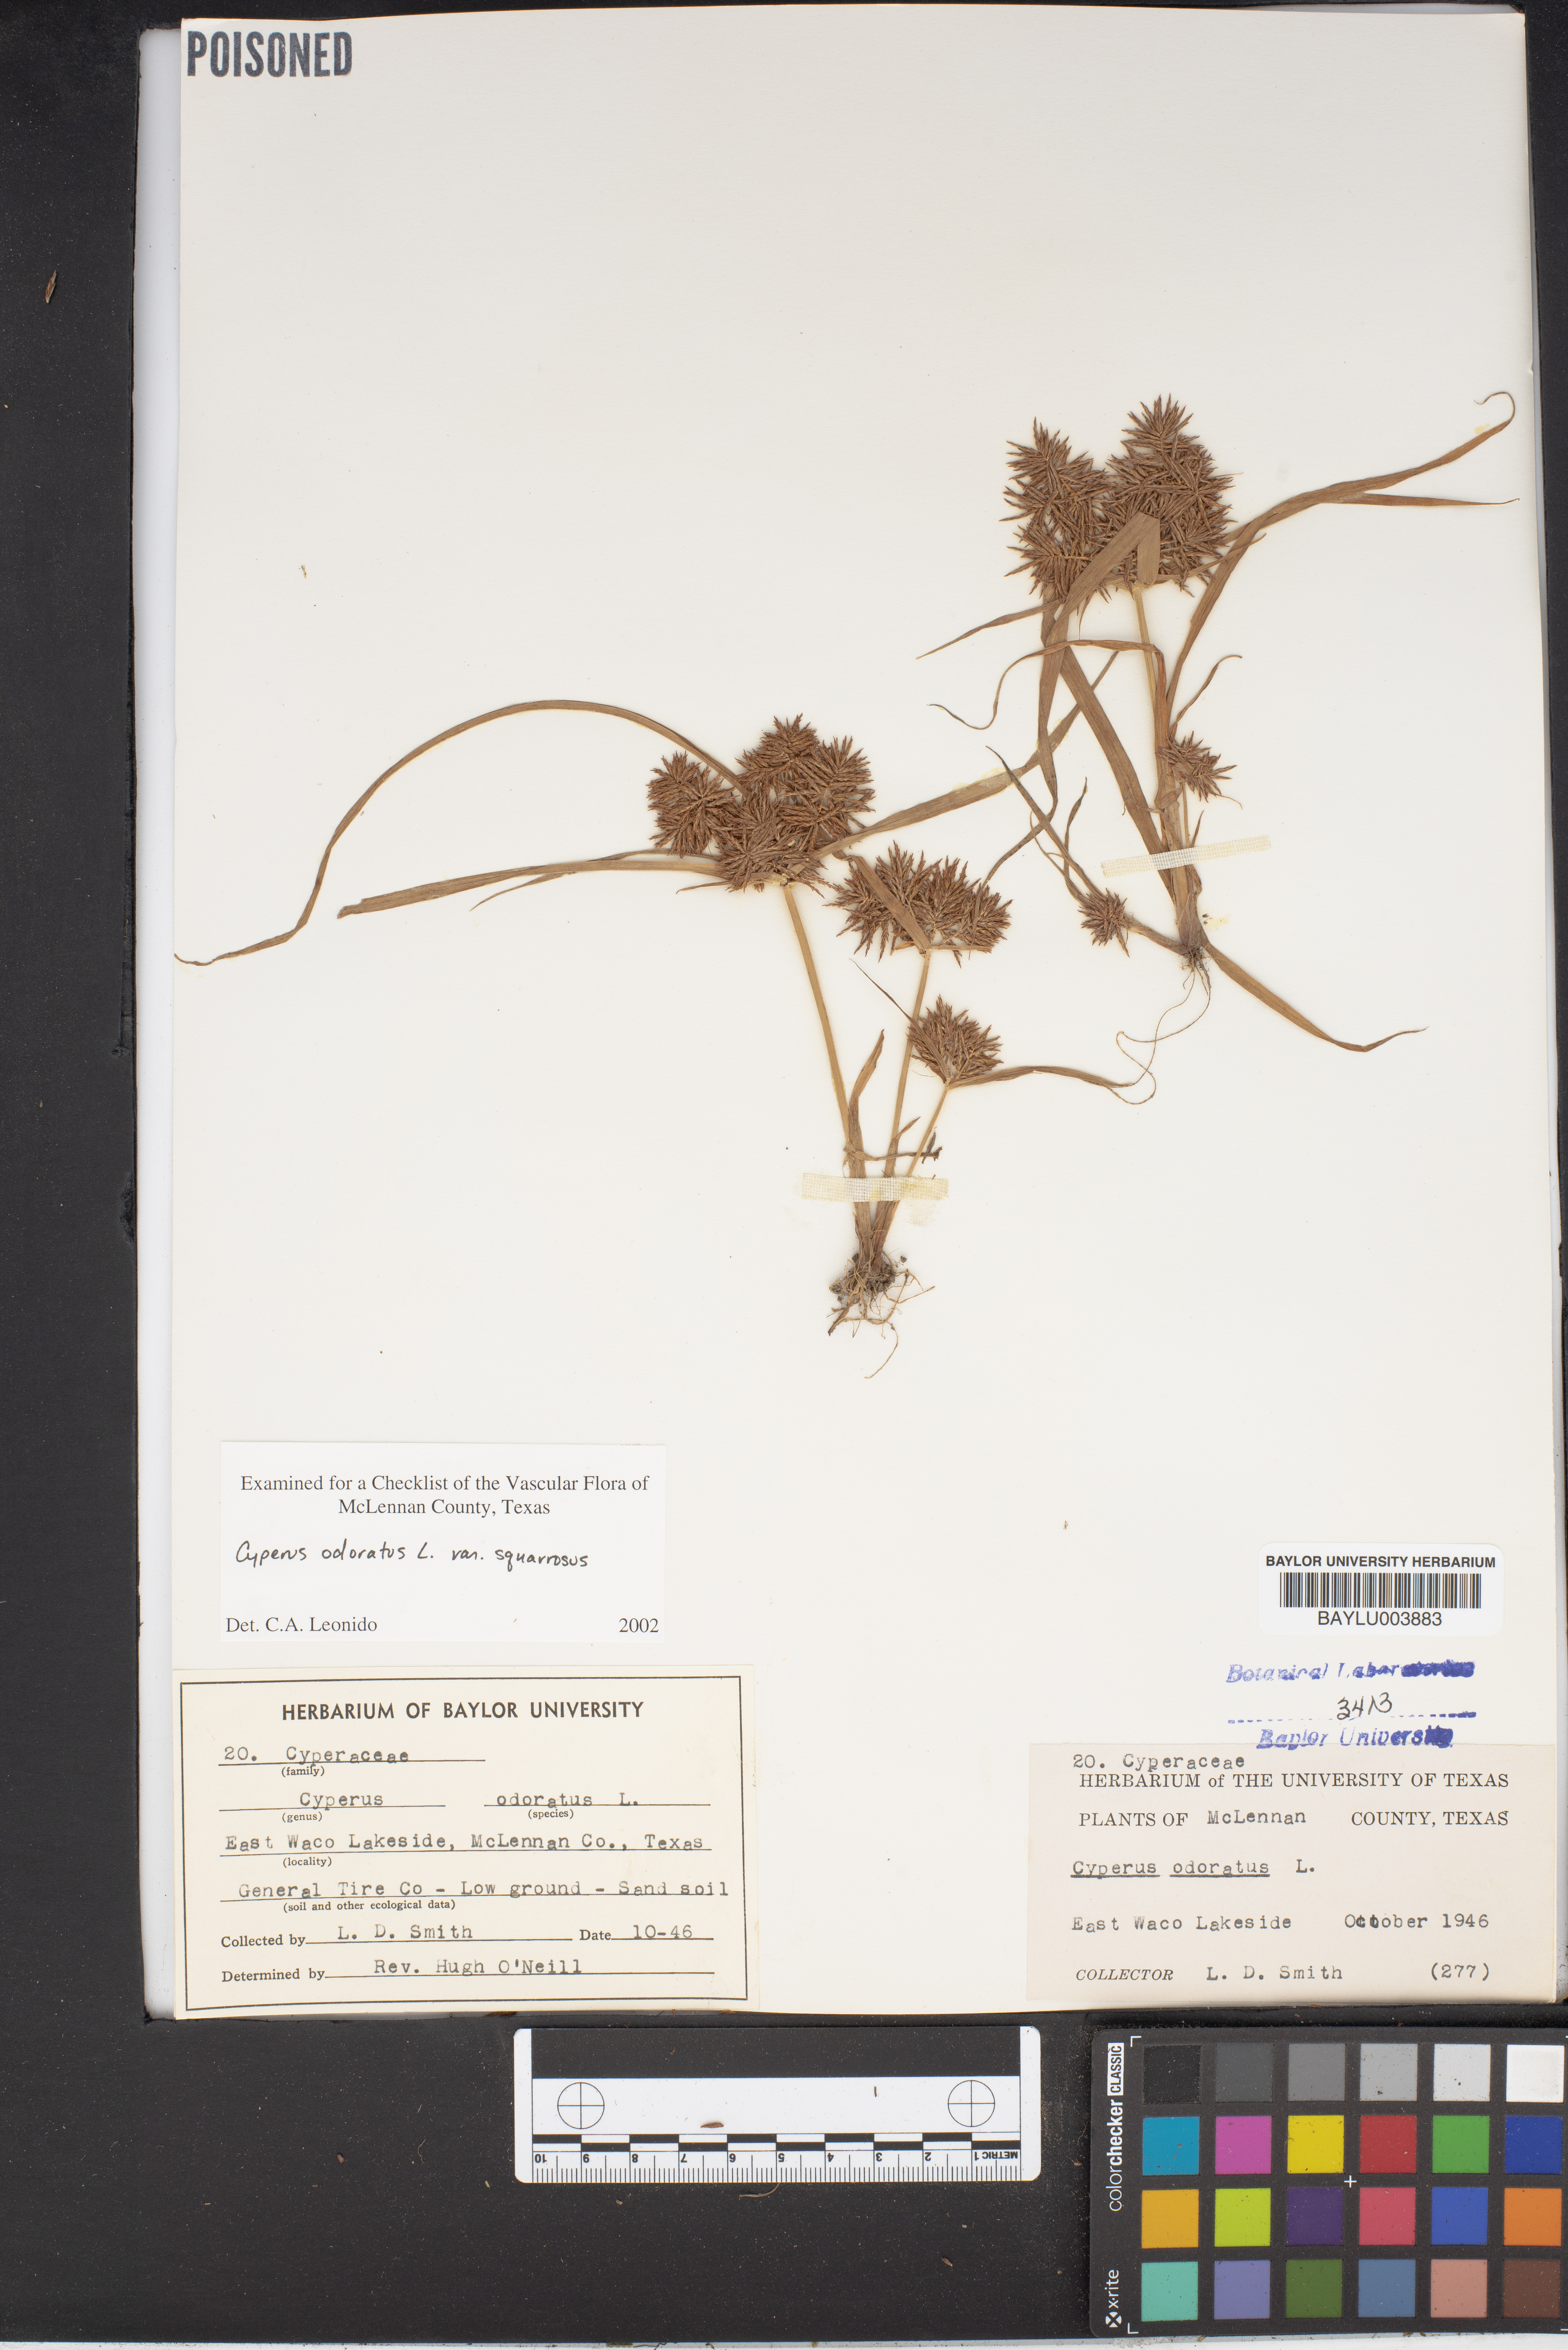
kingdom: Plantae
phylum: Tracheophyta
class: Liliopsida
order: Poales
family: Cyperaceae
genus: Cyperus
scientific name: Cyperus odoratus
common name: Fragrant flatsedge
